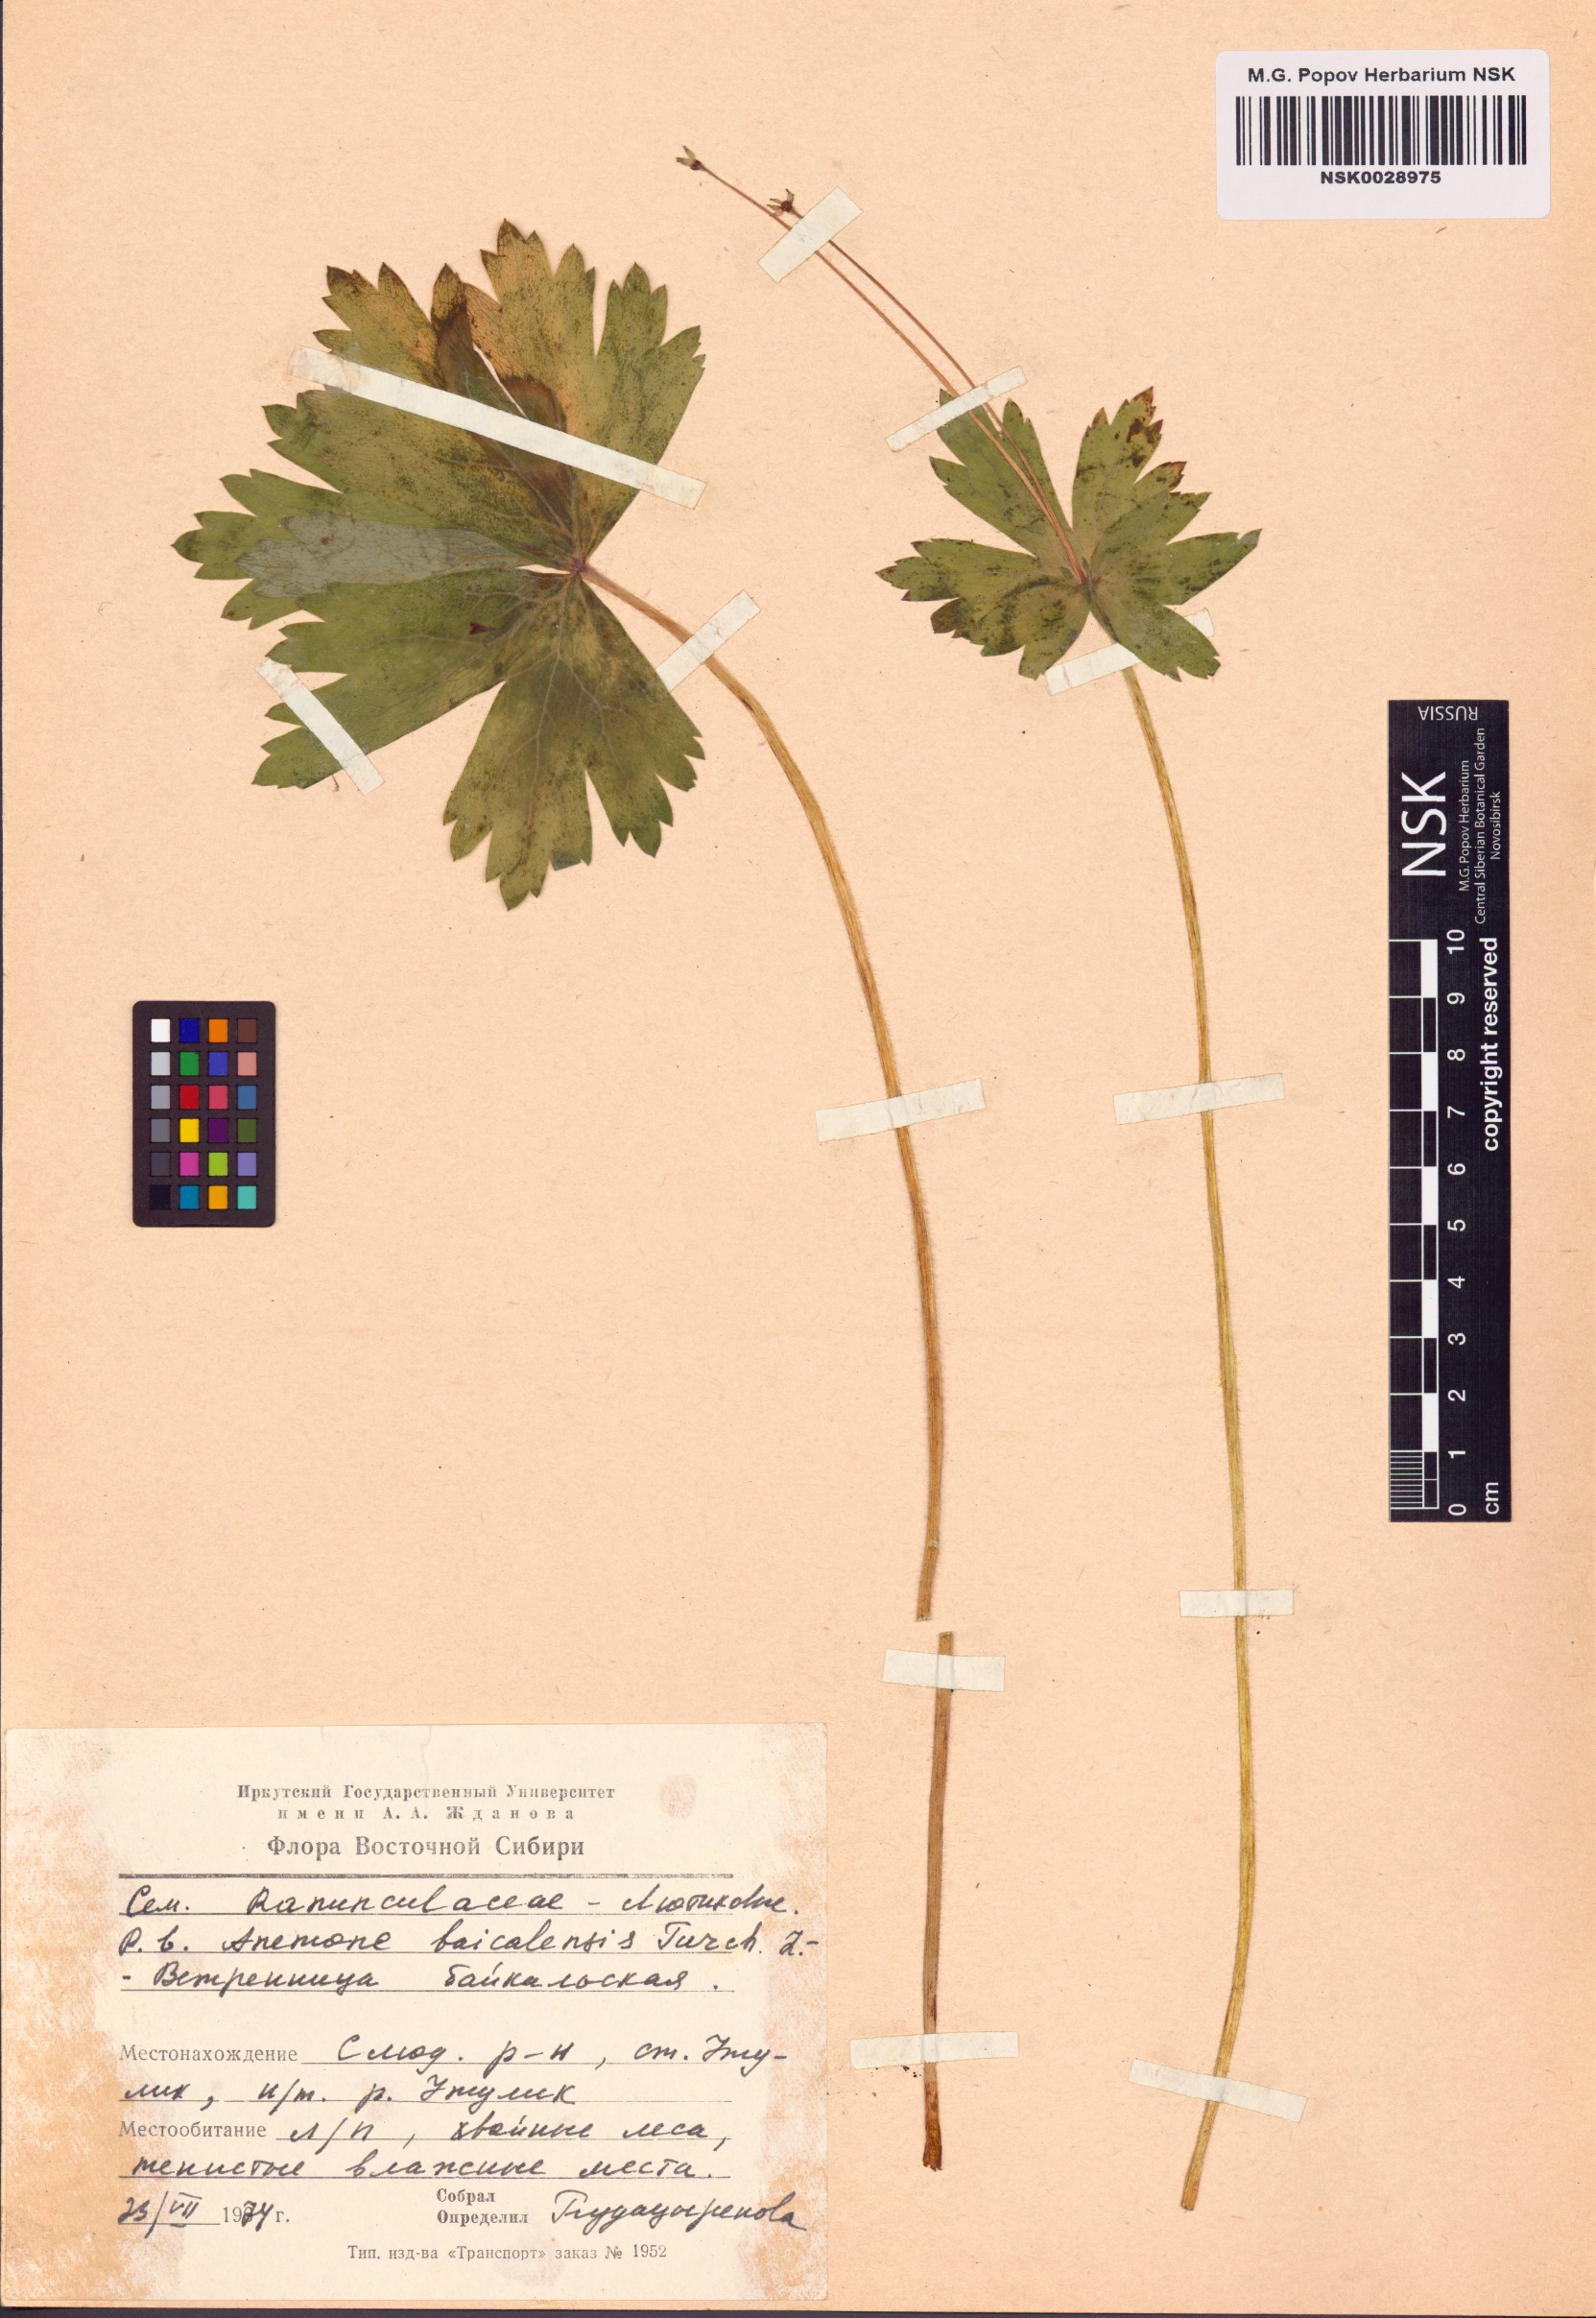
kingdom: Plantae
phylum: Tracheophyta
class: Magnoliopsida
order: Ranunculales
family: Ranunculaceae
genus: Anemonastrum
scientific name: Anemonastrum baicalense
